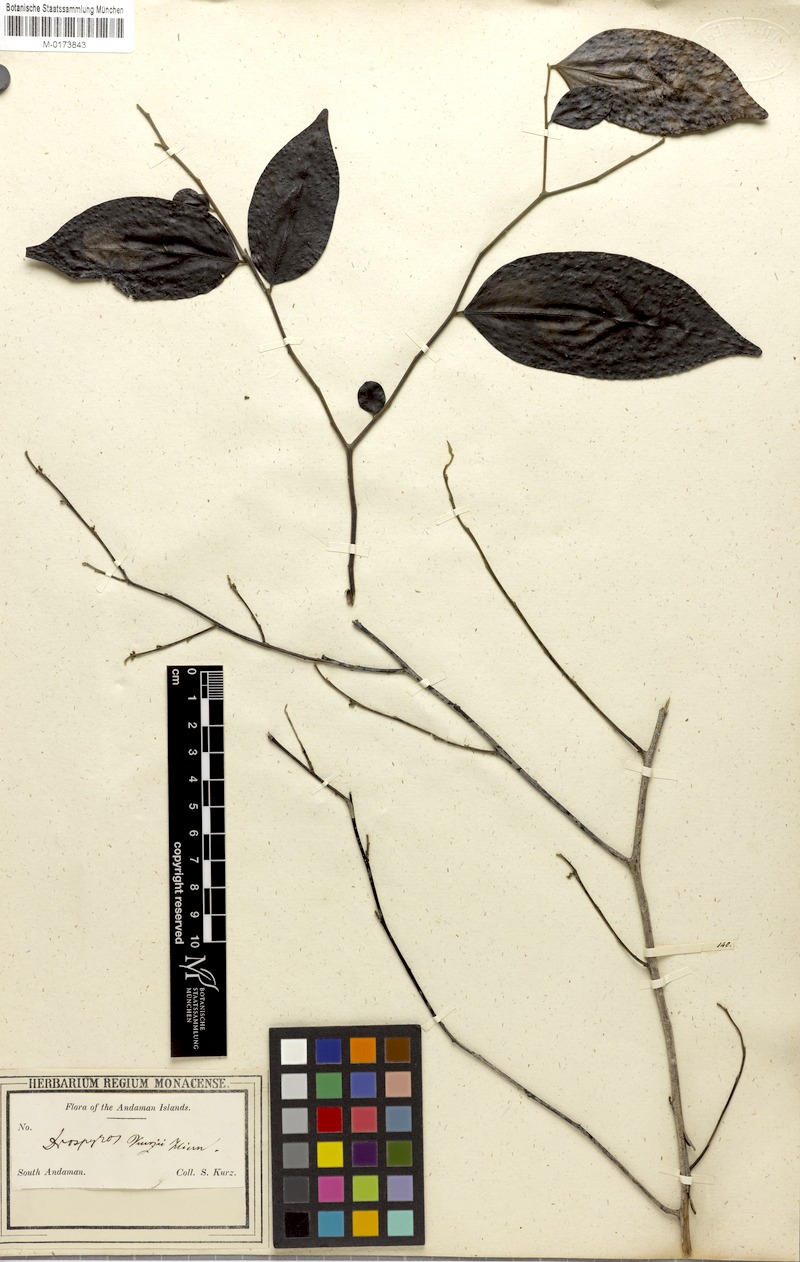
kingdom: Plantae
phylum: Tracheophyta
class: Magnoliopsida
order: Ericales
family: Ebenaceae
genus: Diospyros
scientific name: Diospyros kurzii
